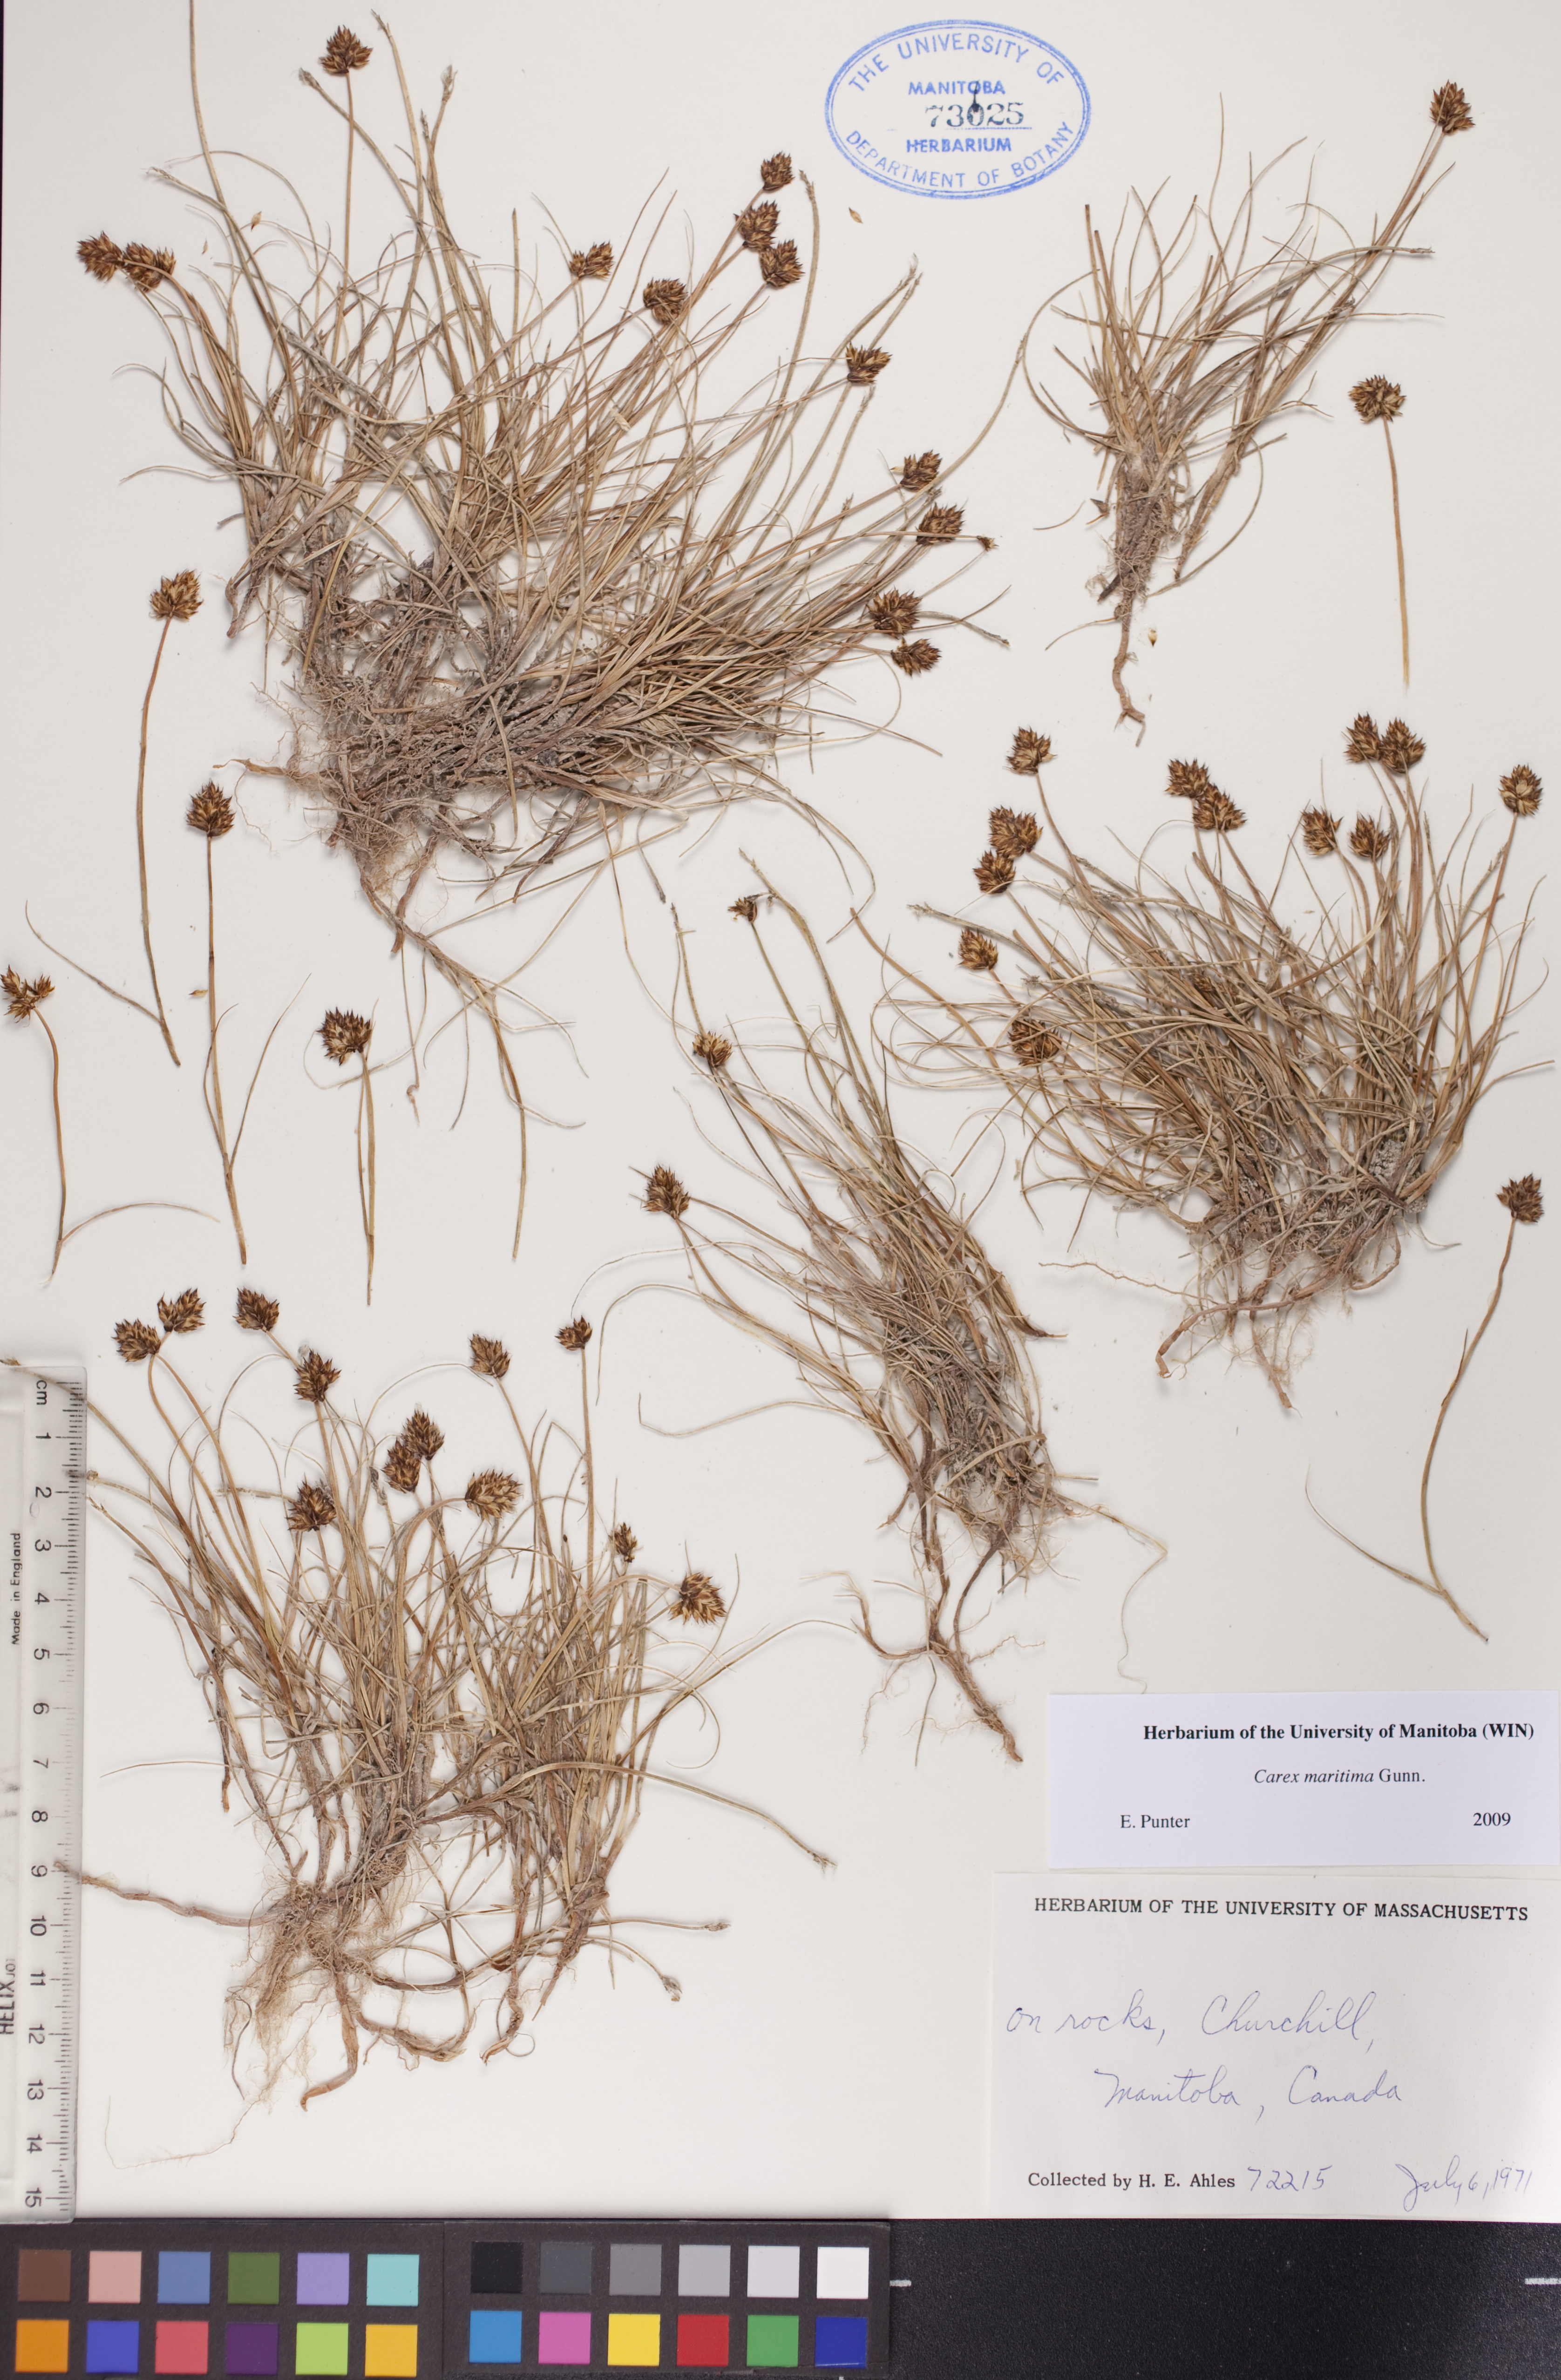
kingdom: Plantae
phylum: Tracheophyta
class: Liliopsida
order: Poales
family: Cyperaceae
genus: Carex
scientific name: Carex maritima
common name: Curved sedge
